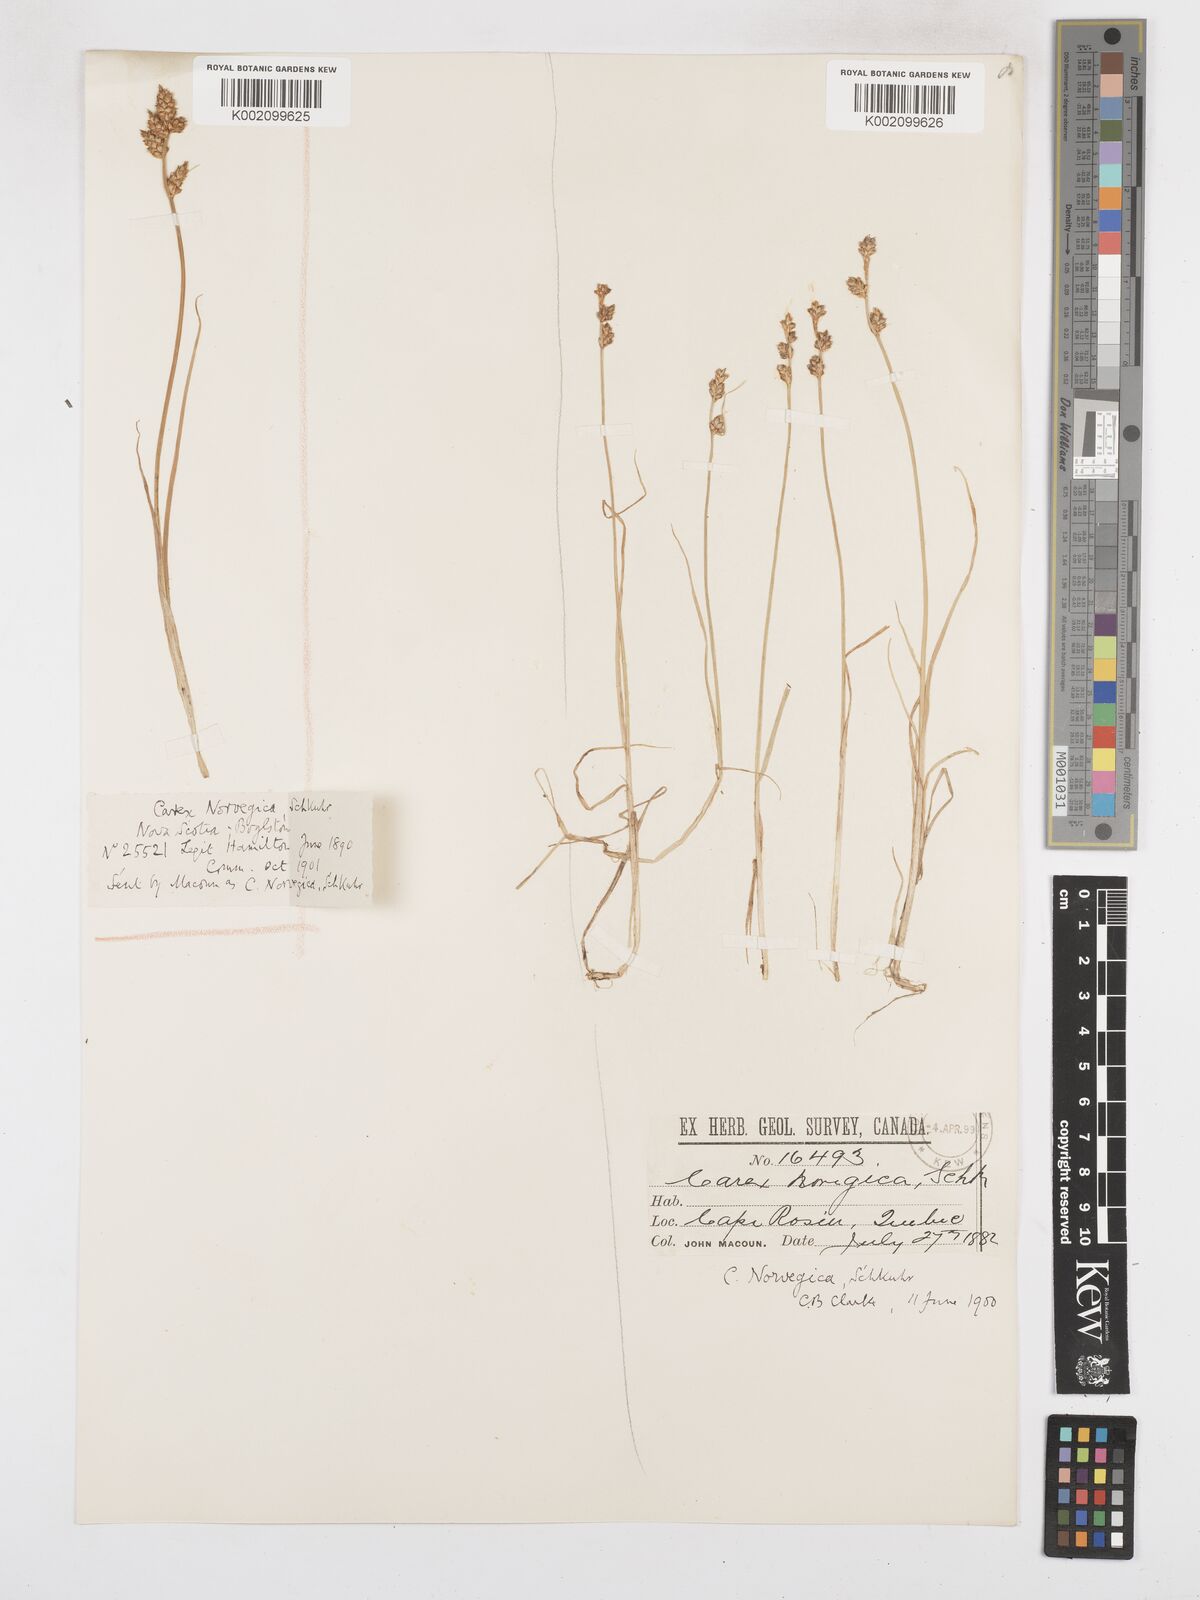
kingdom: Plantae
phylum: Tracheophyta
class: Liliopsida
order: Poales
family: Cyperaceae
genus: Carex
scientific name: Carex mackenziei
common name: Mackenzie's sedge
